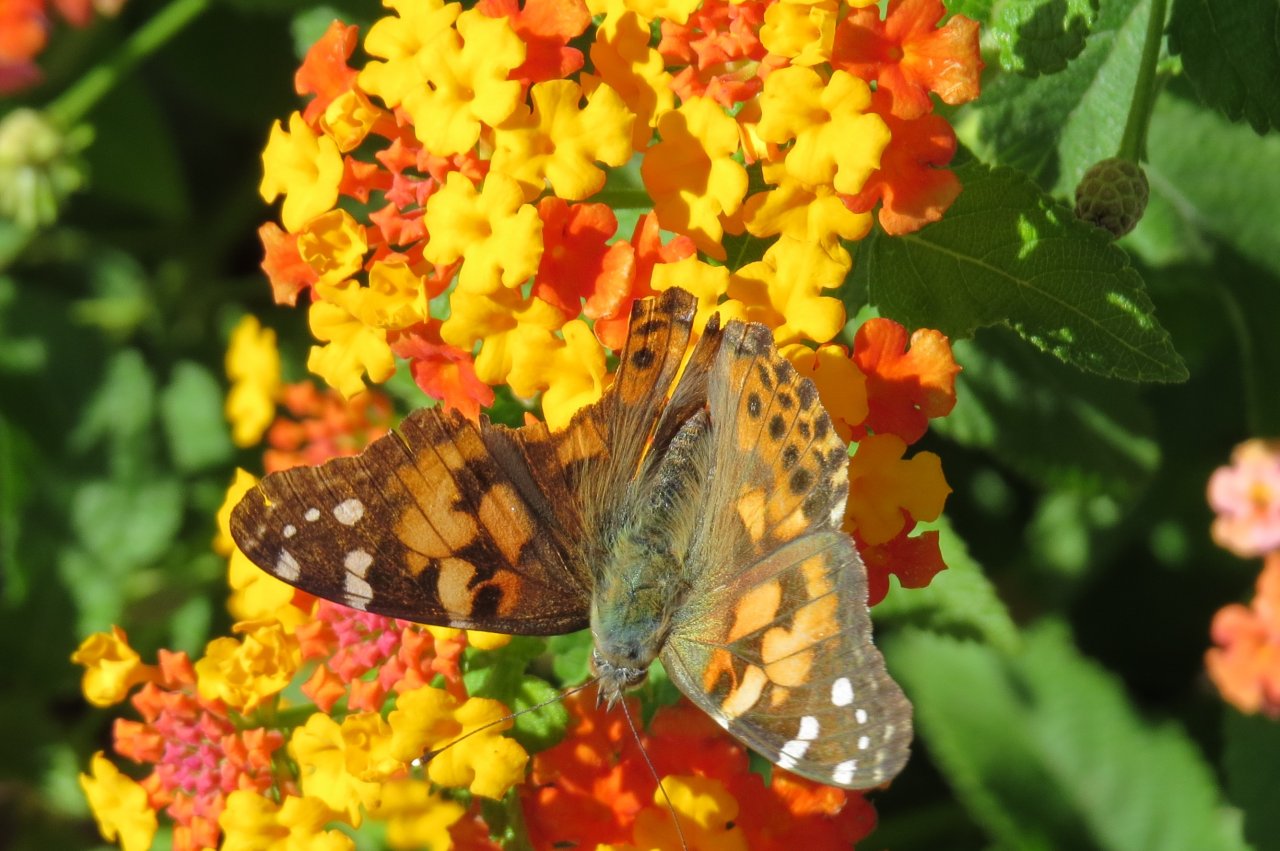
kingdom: Animalia
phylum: Arthropoda
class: Insecta
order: Lepidoptera
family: Nymphalidae
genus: Vanessa
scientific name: Vanessa cardui
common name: Painted Lady
